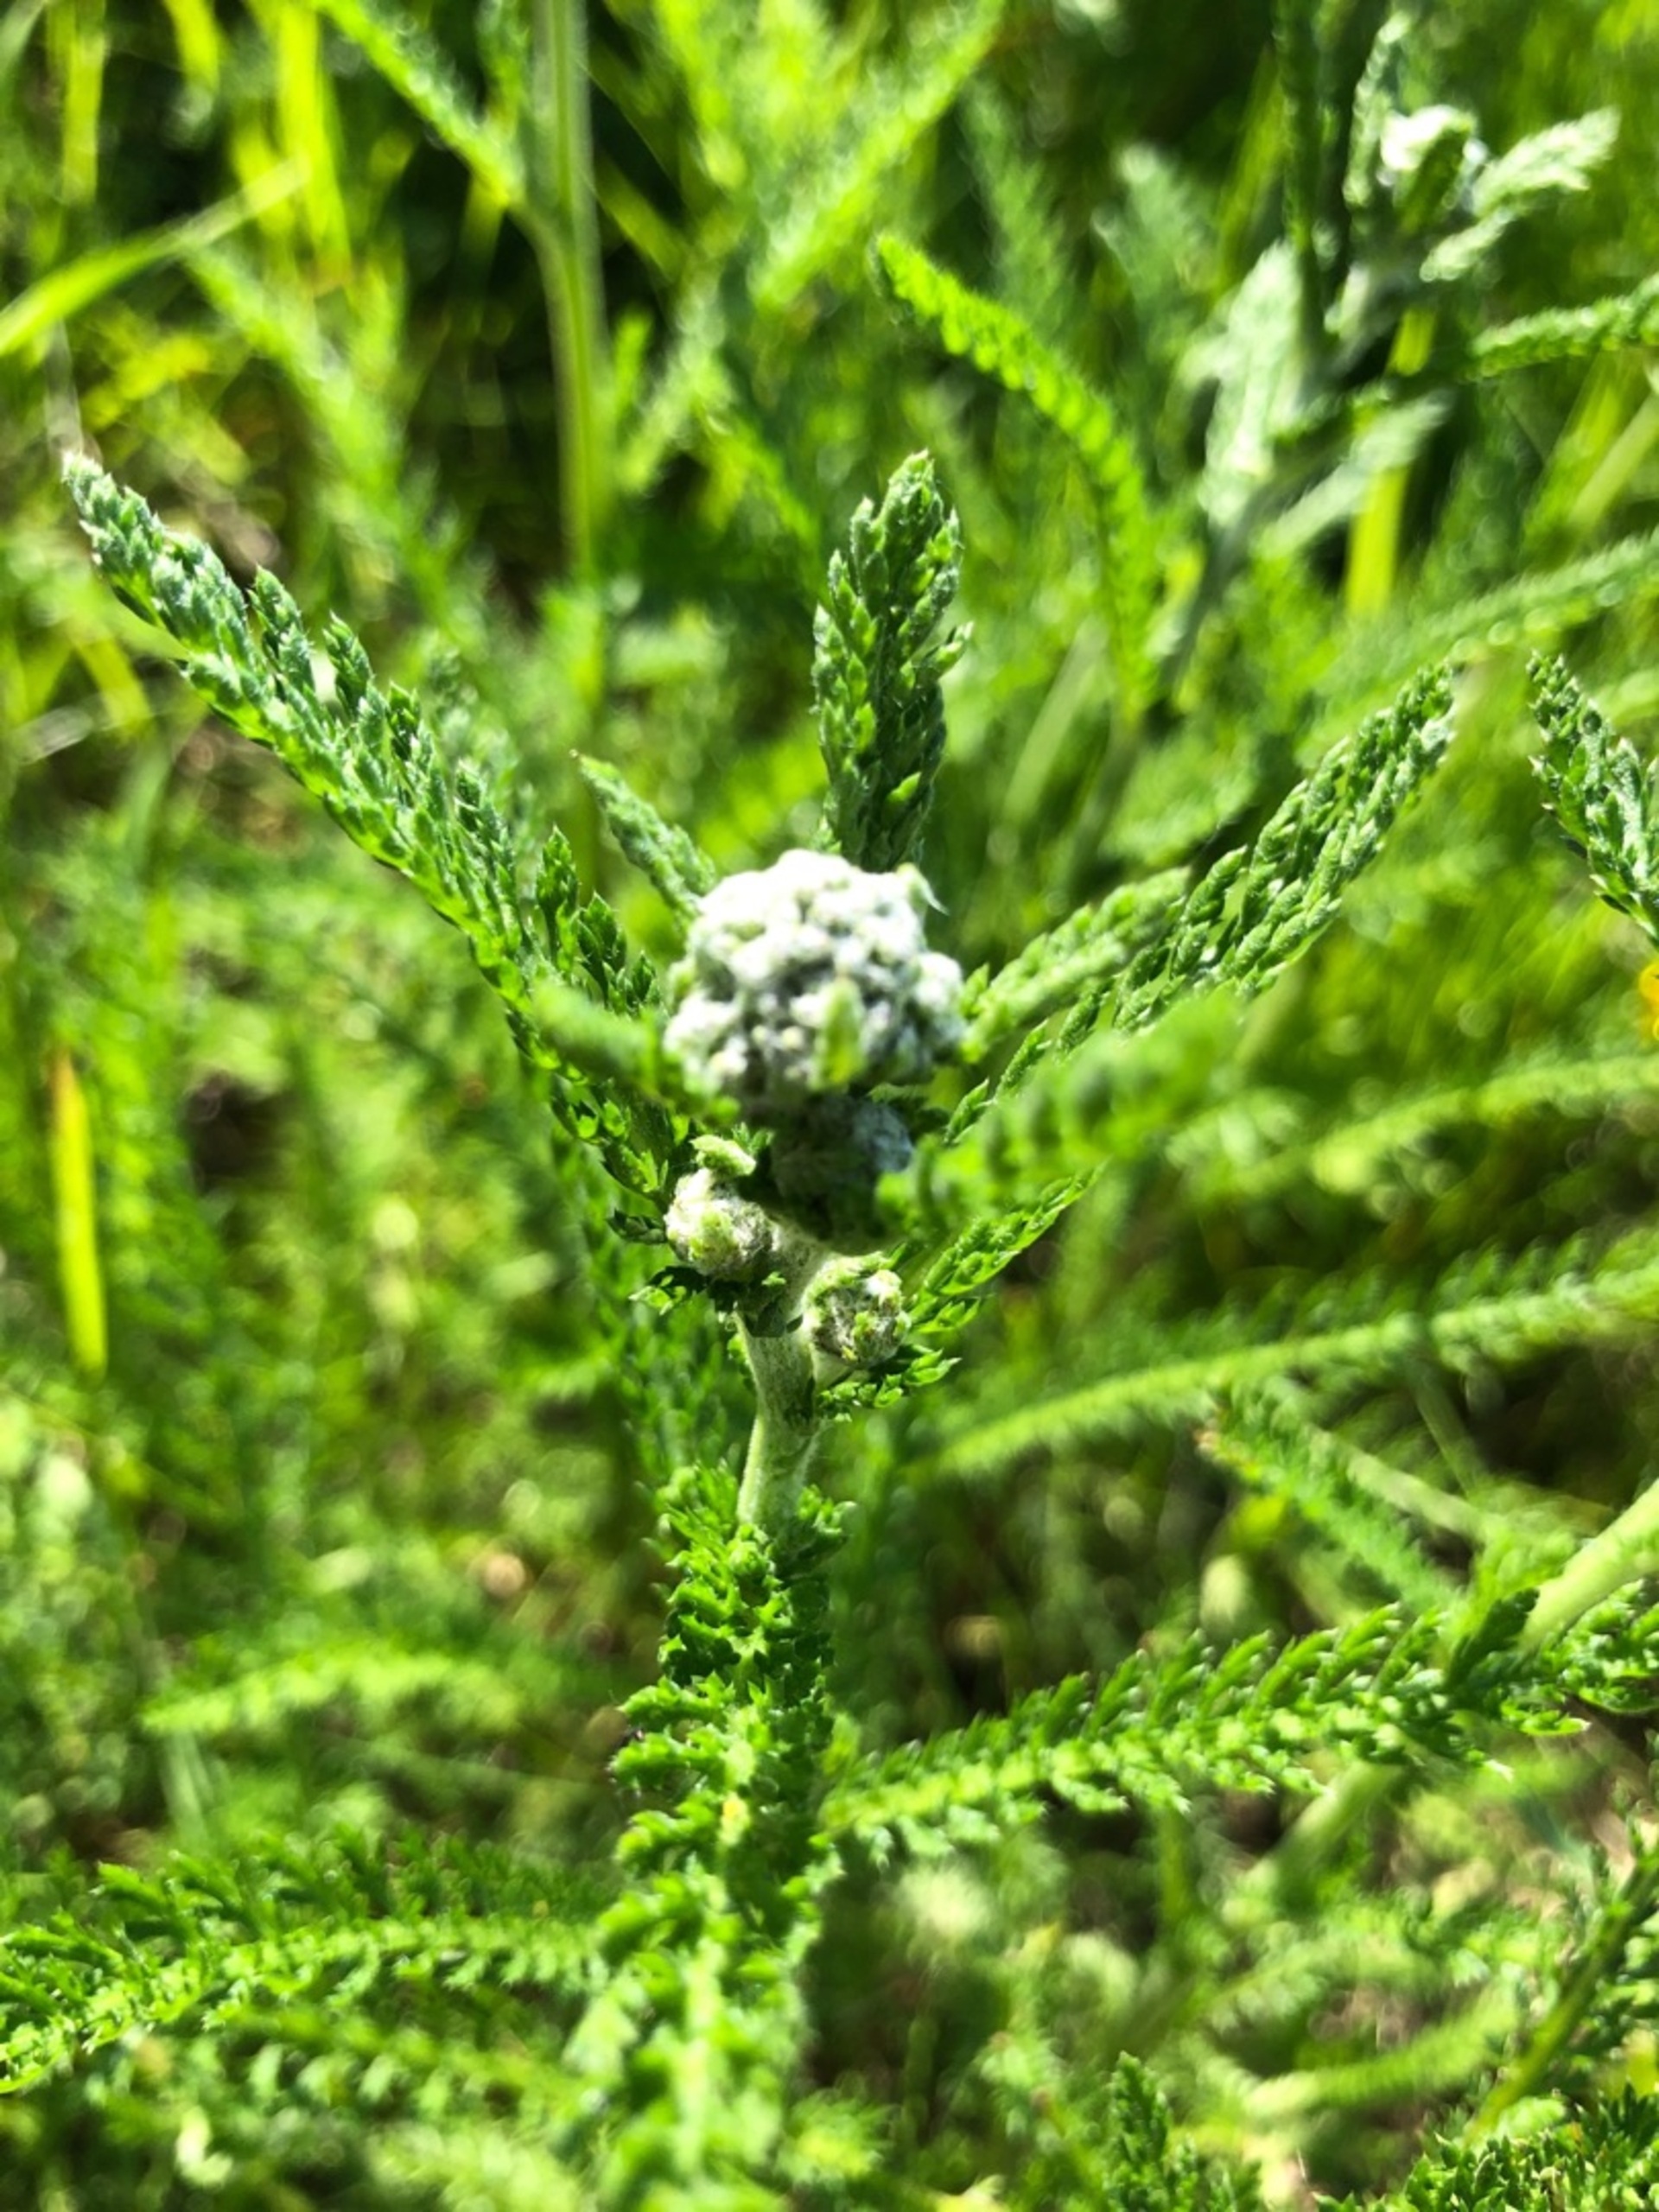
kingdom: Plantae
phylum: Tracheophyta
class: Magnoliopsida
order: Asterales
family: Asteraceae
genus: Achillea
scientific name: Achillea millefolium
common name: Almindelig røllike
